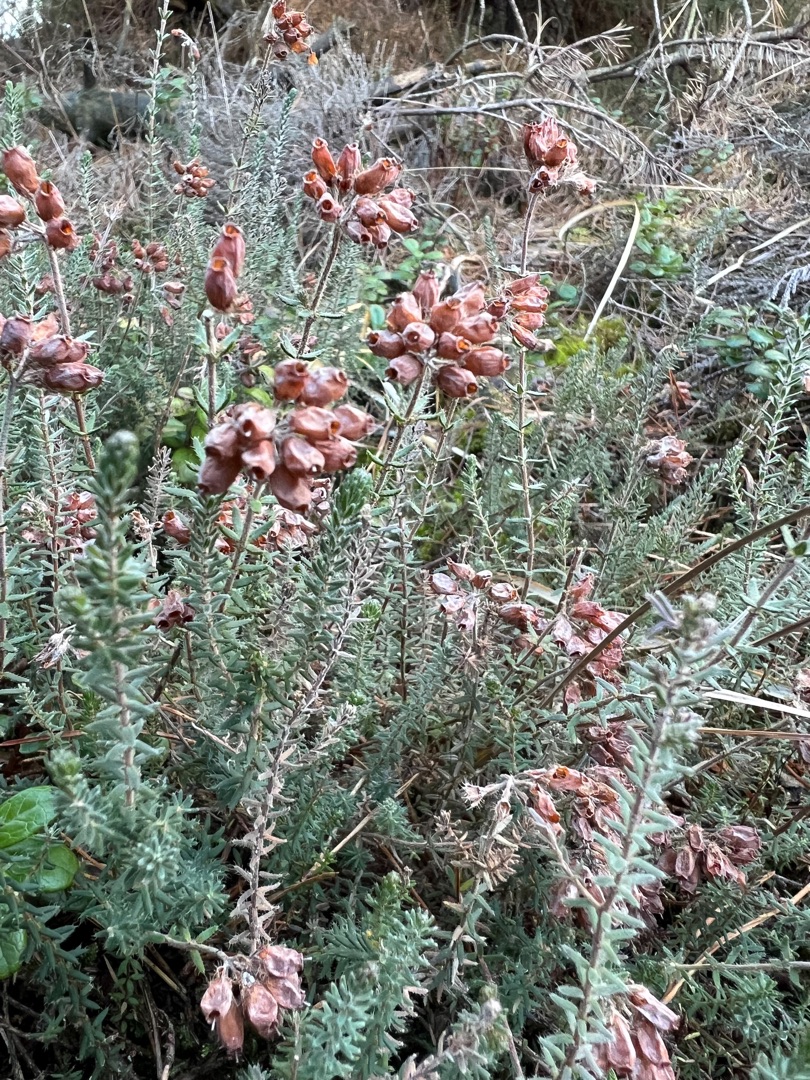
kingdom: Plantae
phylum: Tracheophyta
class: Magnoliopsida
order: Ericales
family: Ericaceae
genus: Erica
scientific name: Erica tetralix
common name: Klokkelyng
